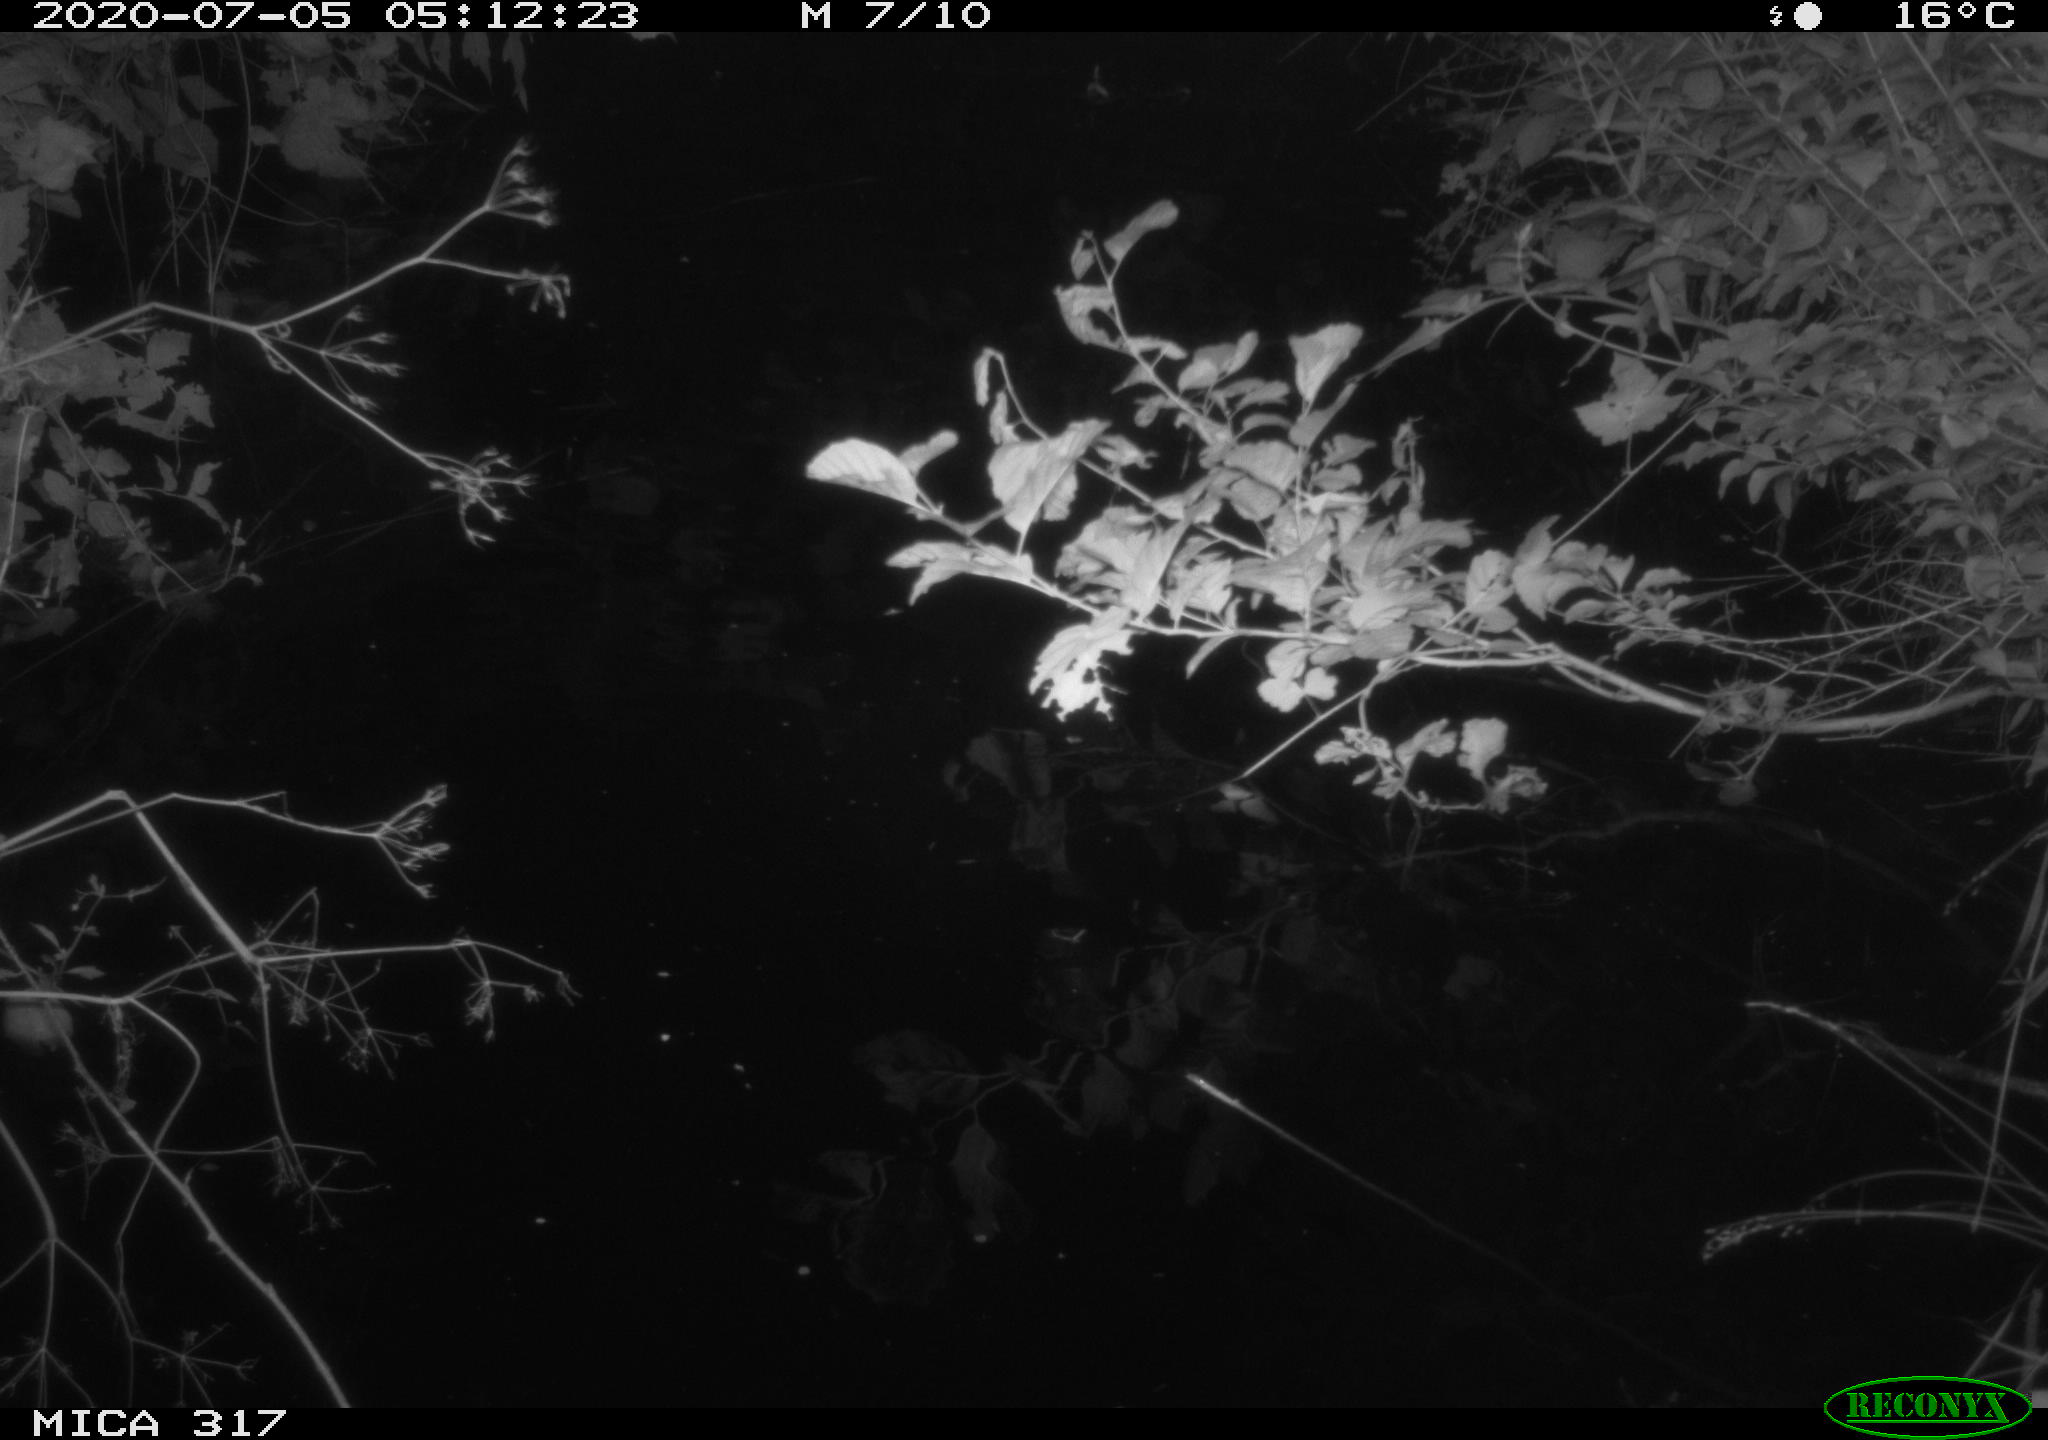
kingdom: Animalia
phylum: Chordata
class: Aves
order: Anseriformes
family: Anatidae
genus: Anas
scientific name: Anas platyrhynchos
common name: Mallard
